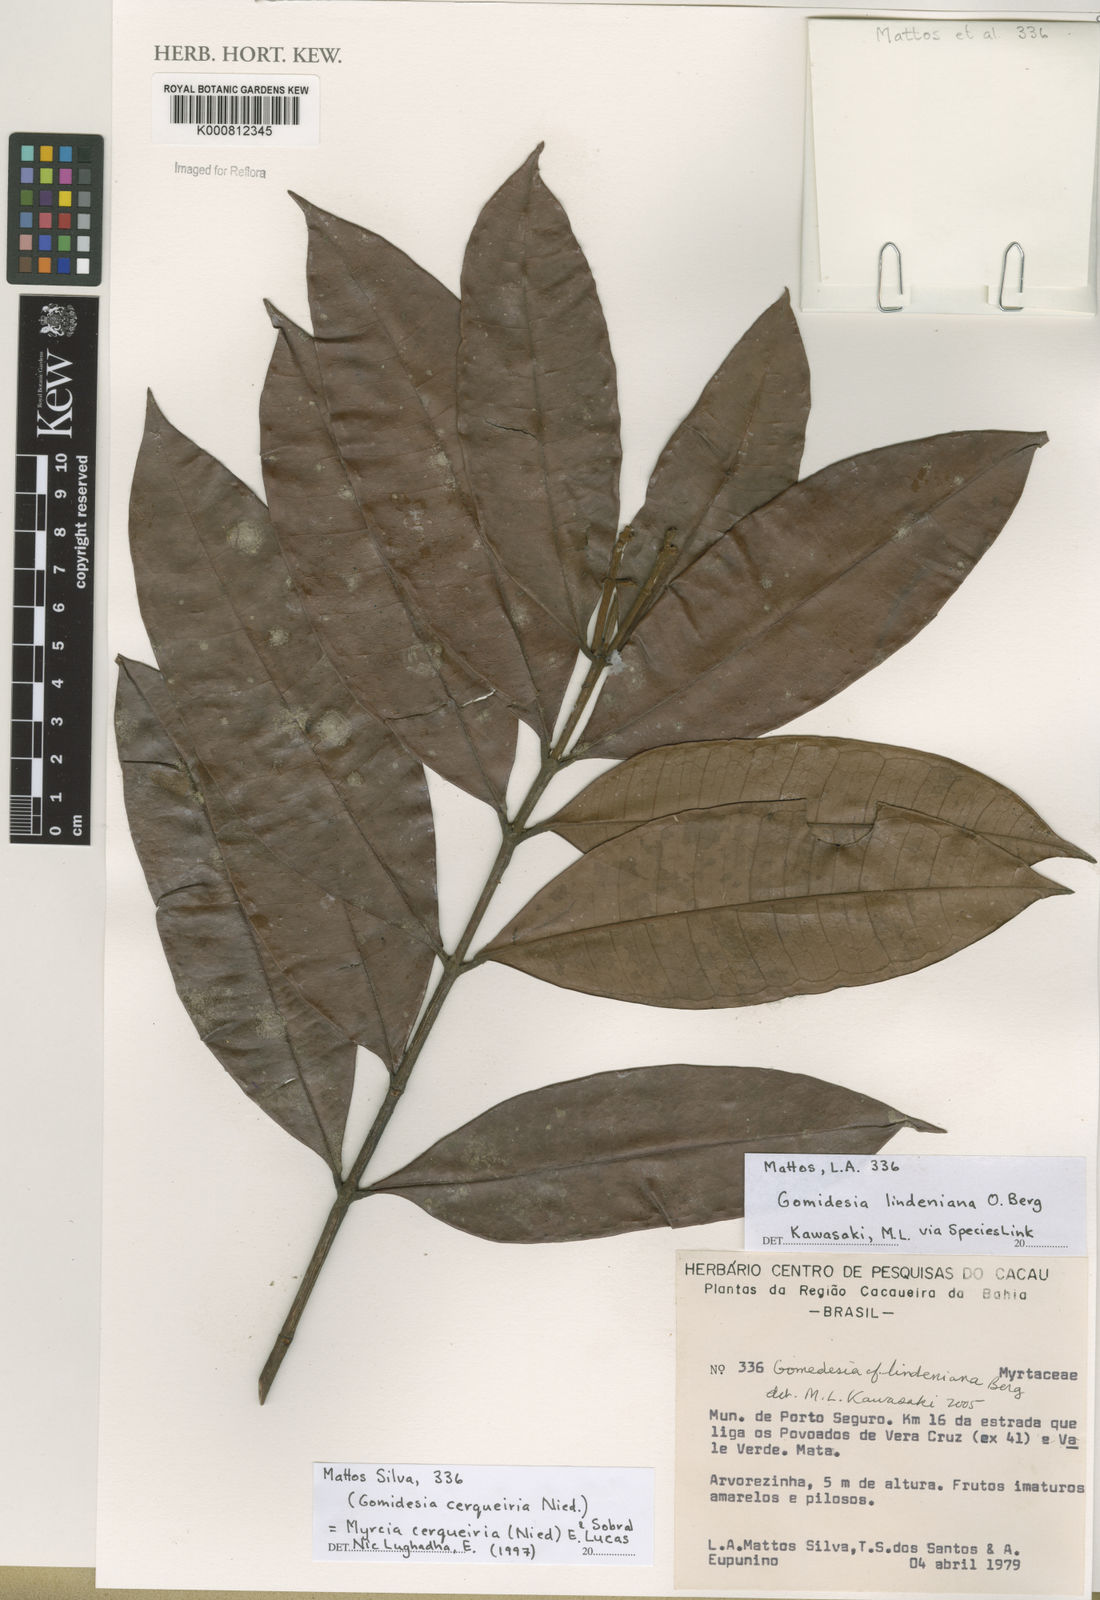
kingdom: Plantae
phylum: Tracheophyta
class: Magnoliopsida
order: Myrtales
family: Myrtaceae
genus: Myrcia
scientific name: Myrcia cerqueiria
